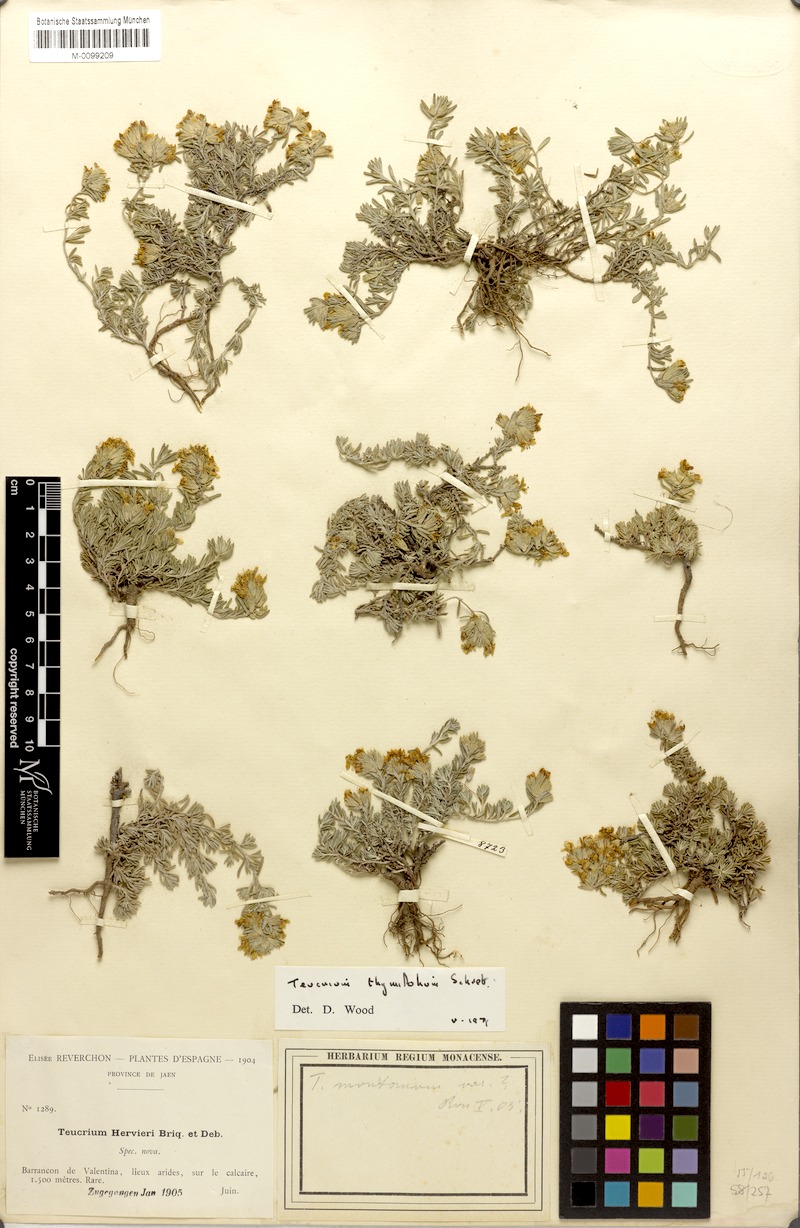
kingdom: Plantae
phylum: Tracheophyta
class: Magnoliopsida
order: Lamiales
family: Lamiaceae
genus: Teucrium
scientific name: Teucrium thymifolium
